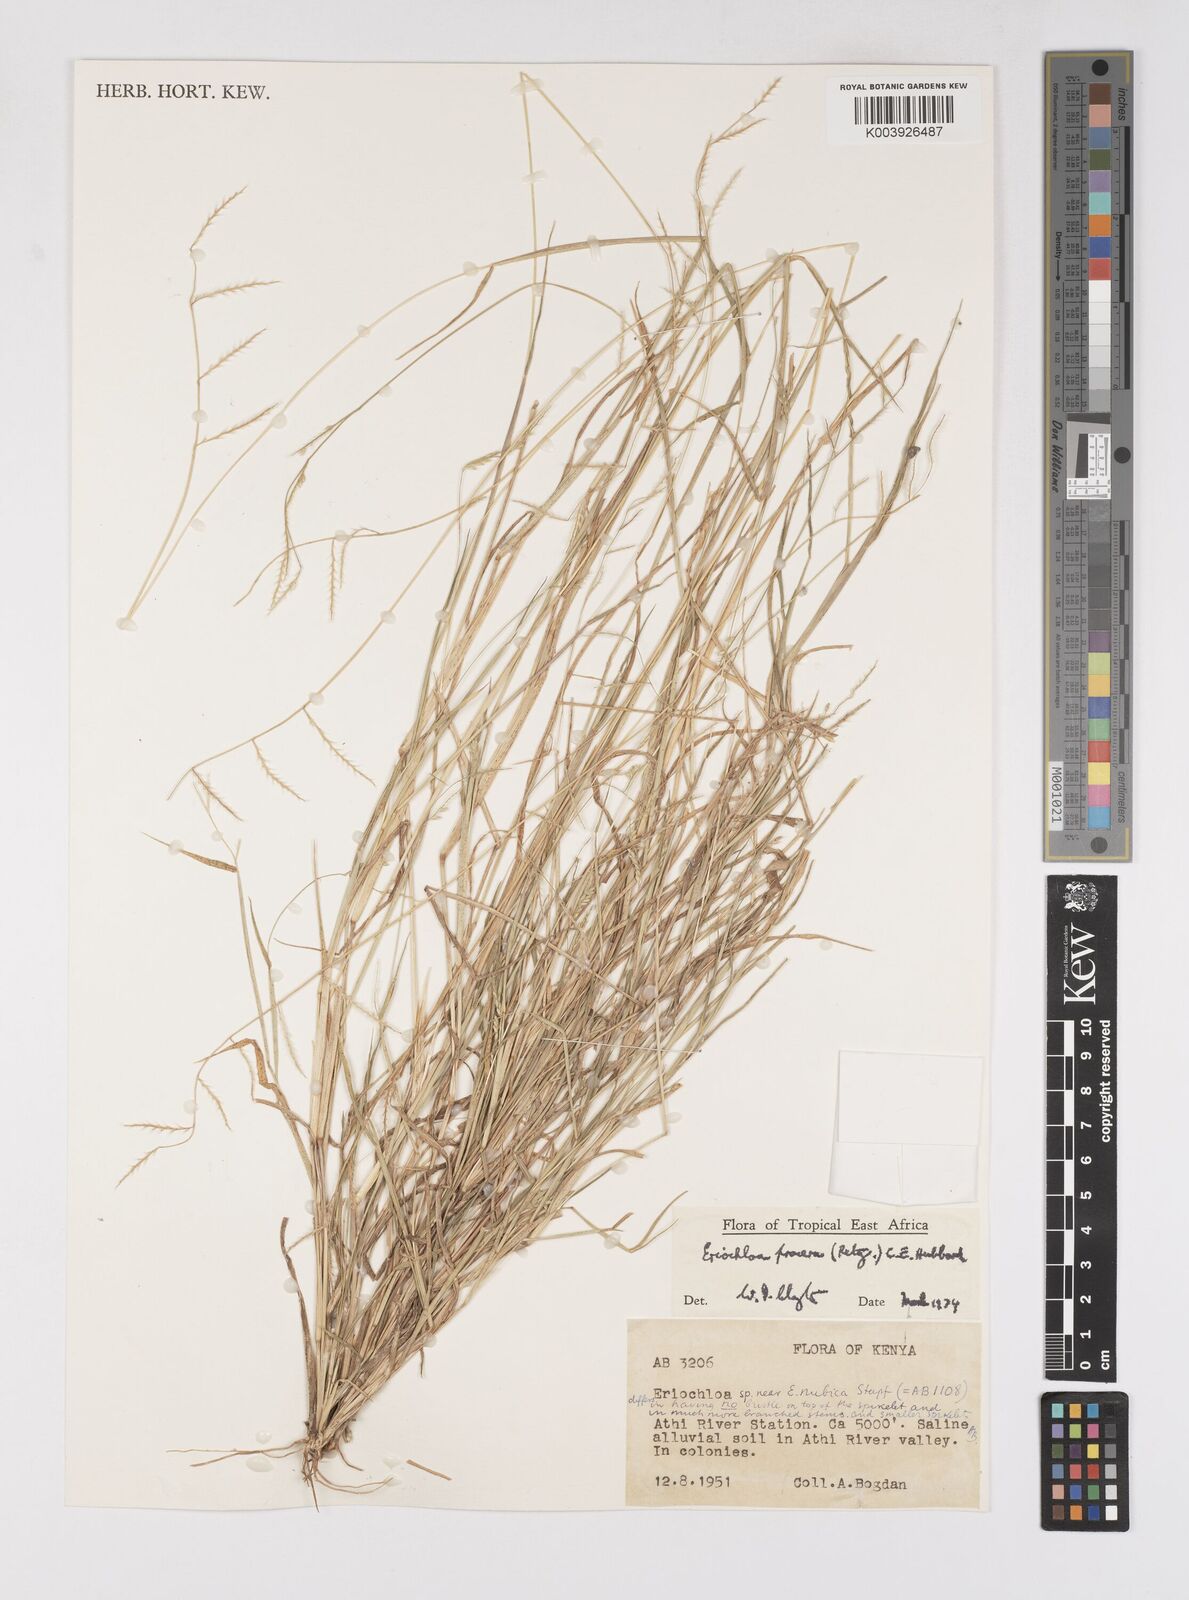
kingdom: Plantae
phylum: Tracheophyta
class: Liliopsida
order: Poales
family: Poaceae
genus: Eriochloa
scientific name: Eriochloa procera
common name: Spring grass
